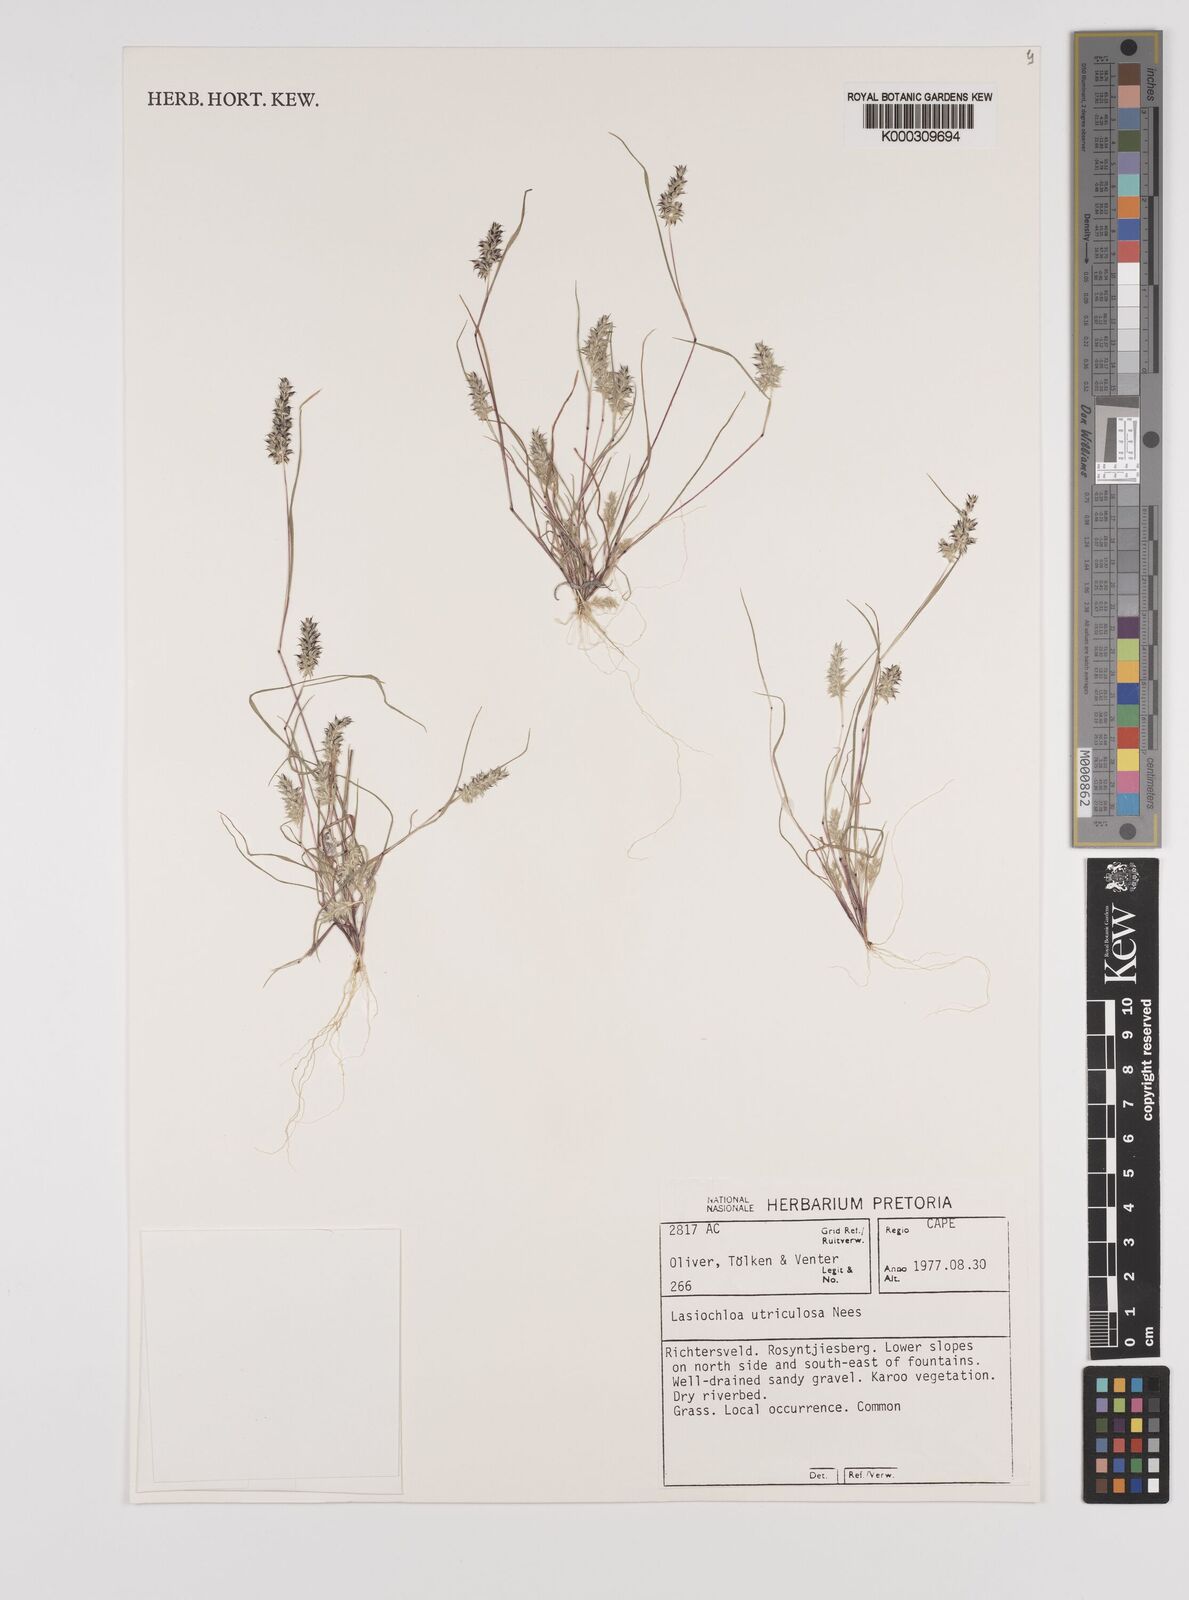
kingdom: Plantae
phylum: Tracheophyta
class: Liliopsida
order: Poales
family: Poaceae
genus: Tribolium
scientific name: Tribolium utriculosum
